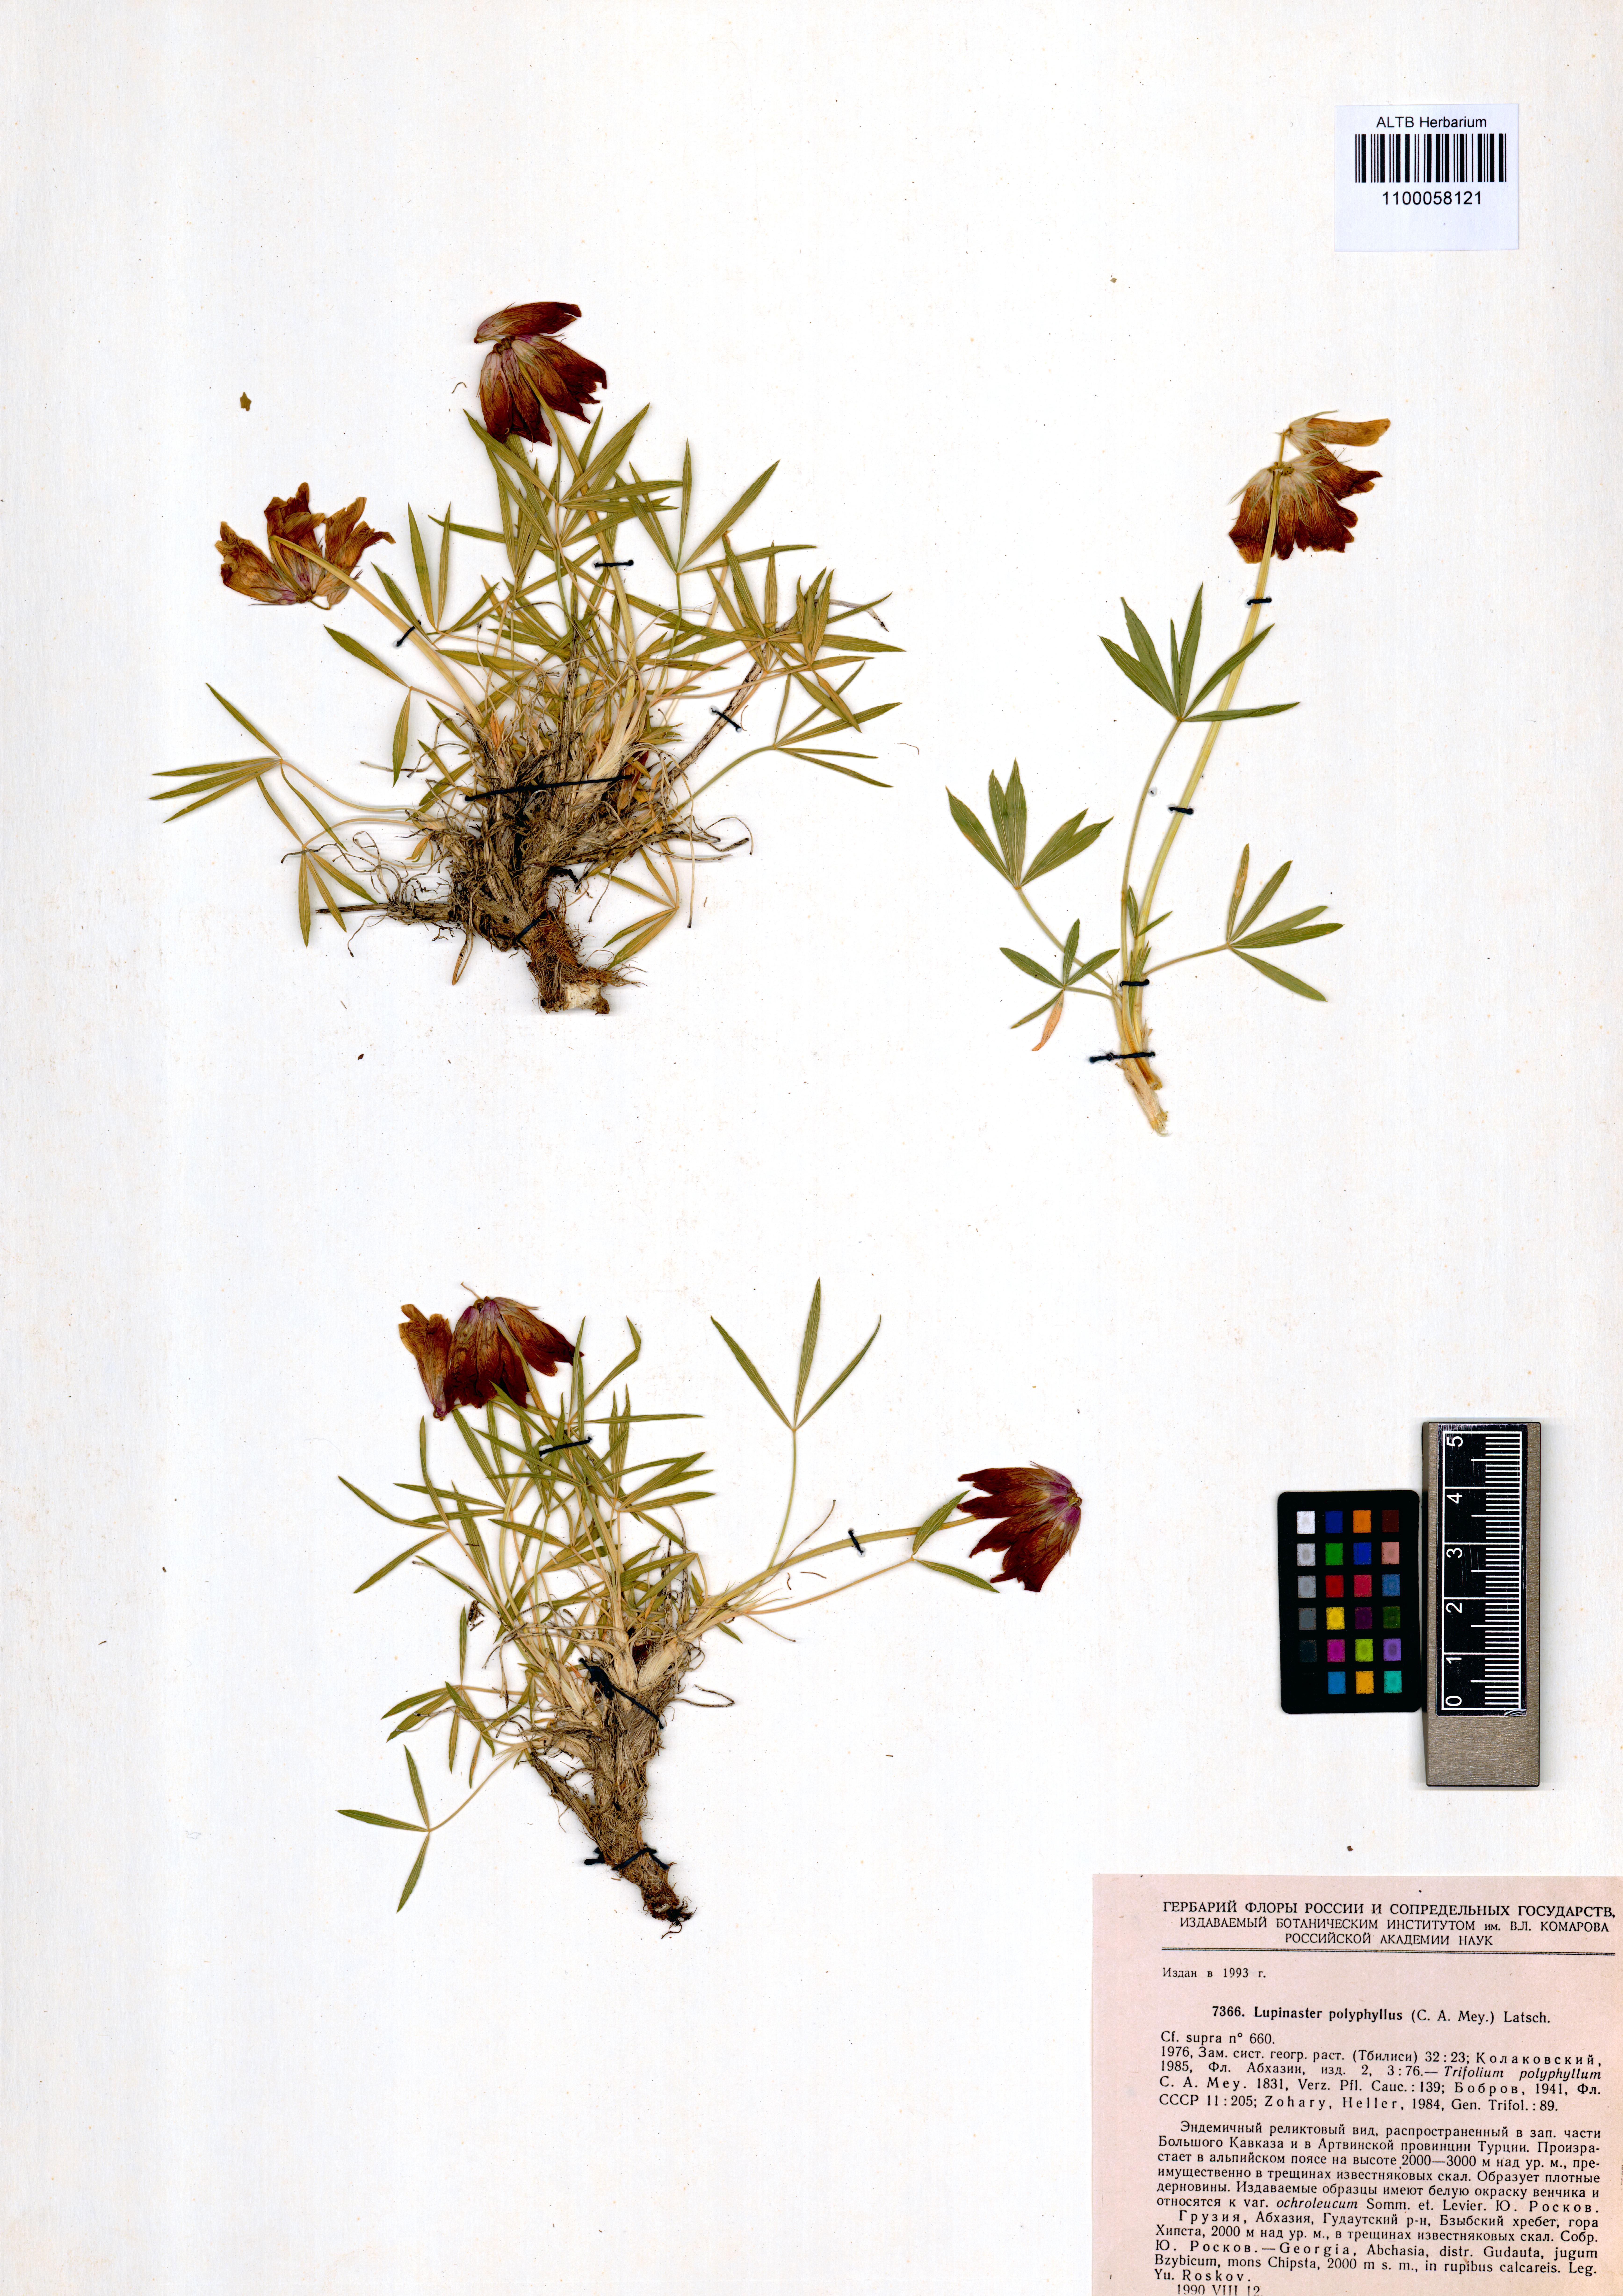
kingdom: Plantae
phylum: Tracheophyta
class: Magnoliopsida
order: Fabales
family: Fabaceae
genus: Trifolium
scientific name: Trifolium polyphyllum
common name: Many-leaf clover
